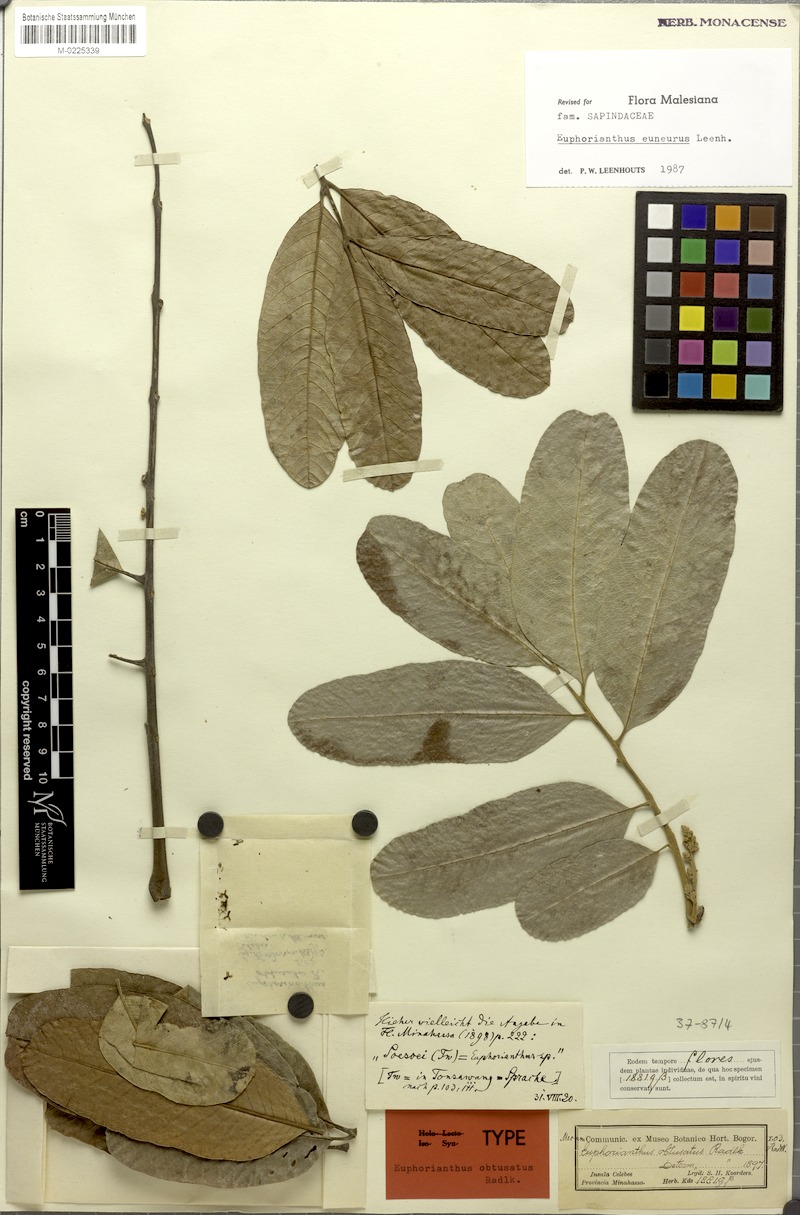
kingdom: Plantae
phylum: Tracheophyta
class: Magnoliopsida
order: Sapindales
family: Sapindaceae
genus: Euphorianthus
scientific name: Euphorianthus euneurus
